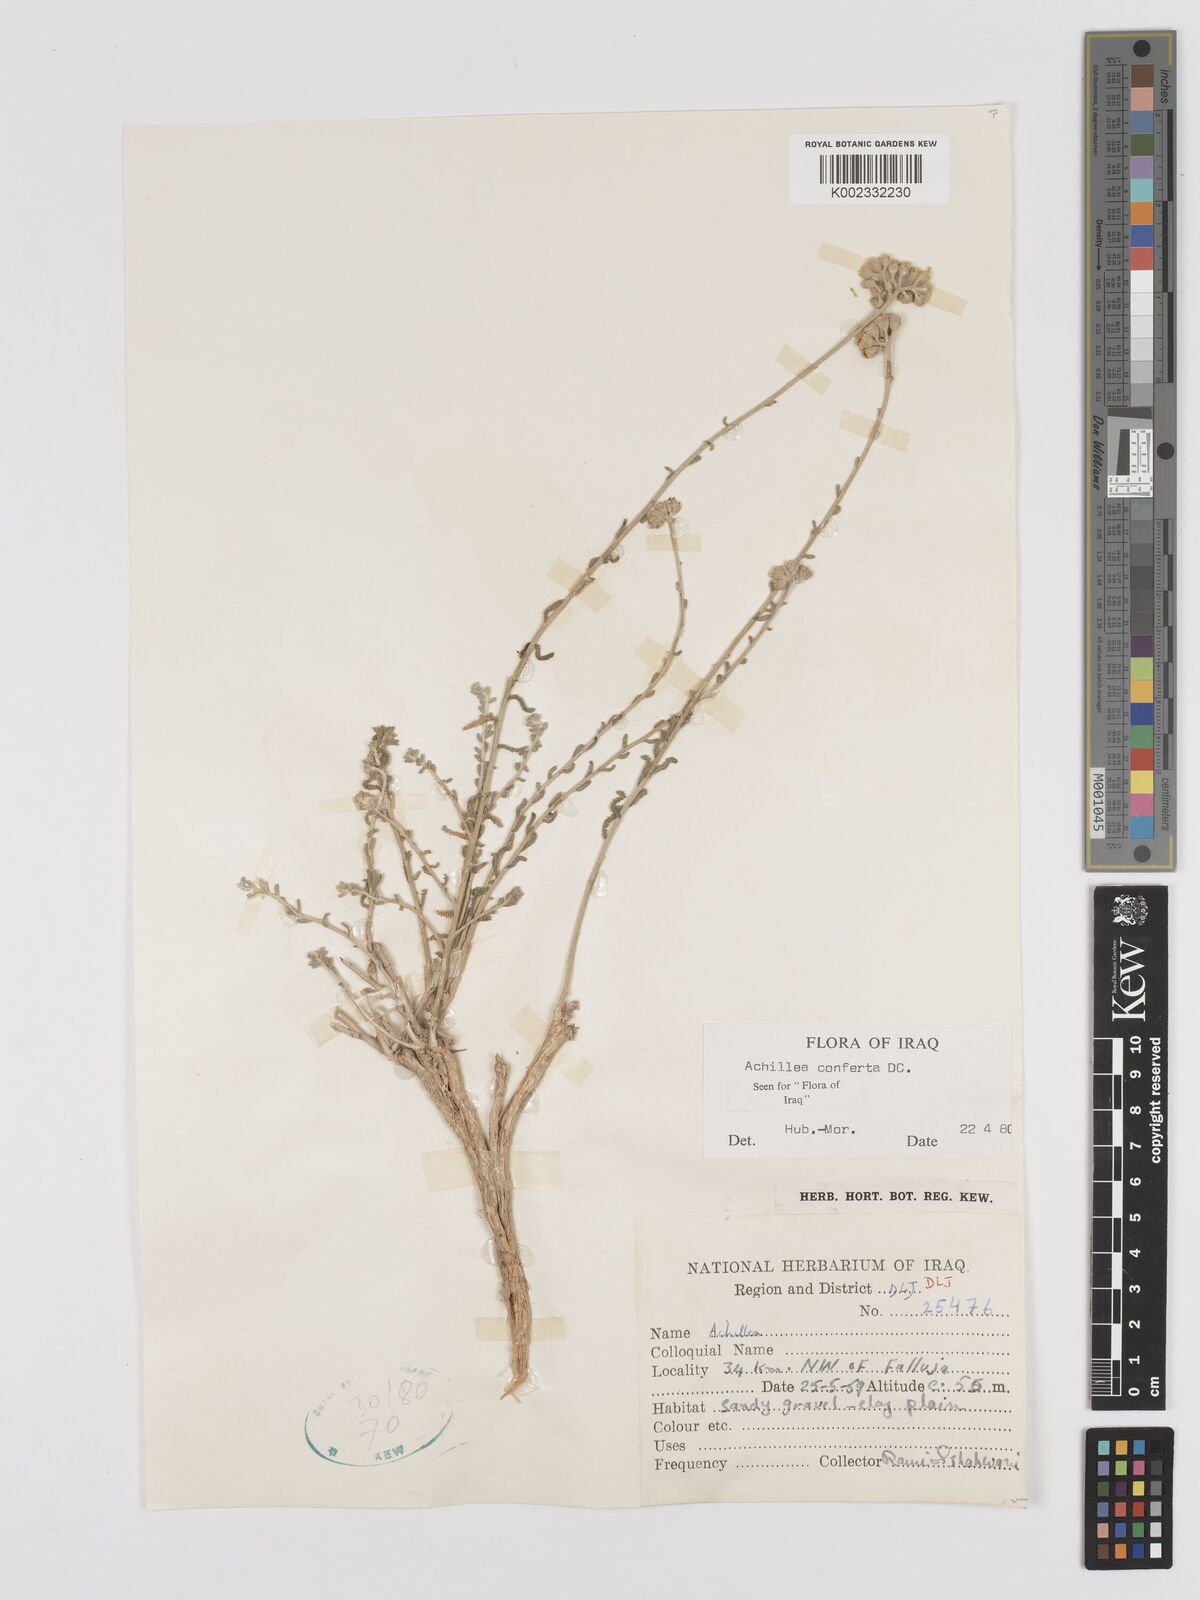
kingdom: Plantae
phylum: Tracheophyta
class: Magnoliopsida
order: Asterales
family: Asteraceae
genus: Achillea
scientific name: Achillea conferta
